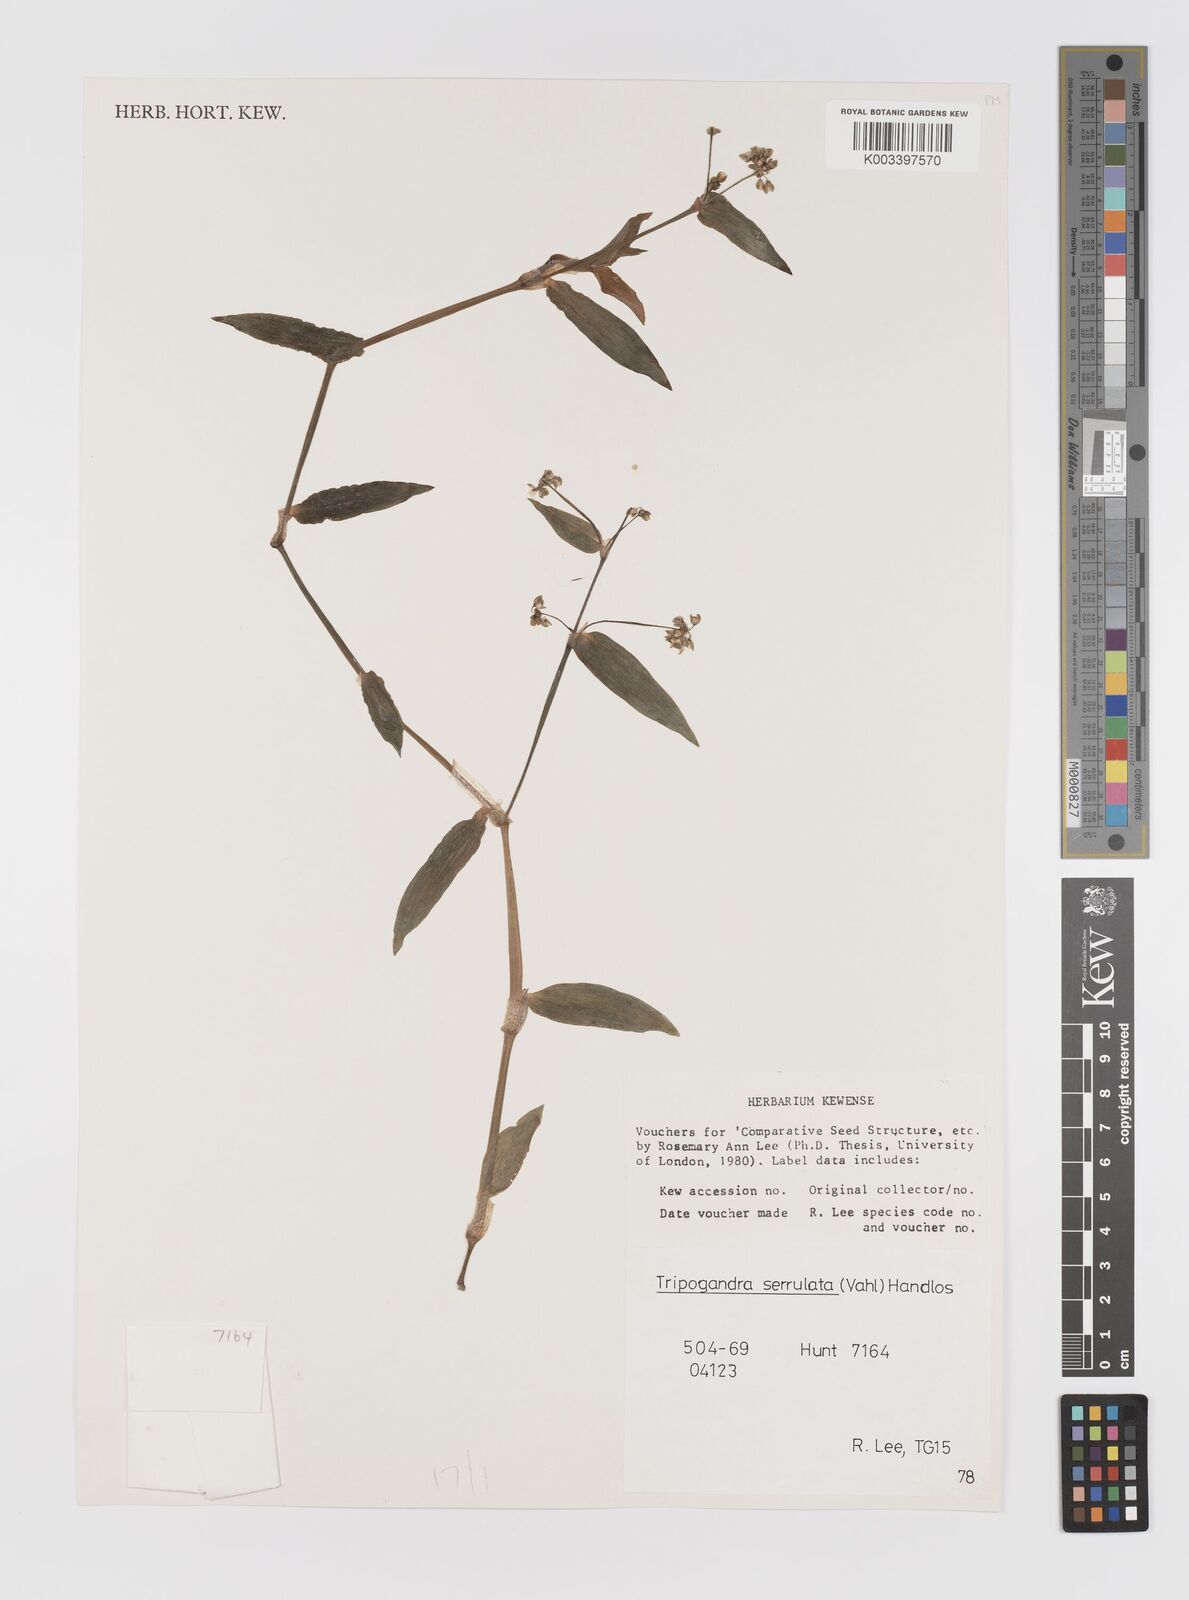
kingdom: Plantae
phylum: Tracheophyta
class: Liliopsida
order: Commelinales
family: Commelinaceae
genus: Callisia
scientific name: Callisia serrulata
